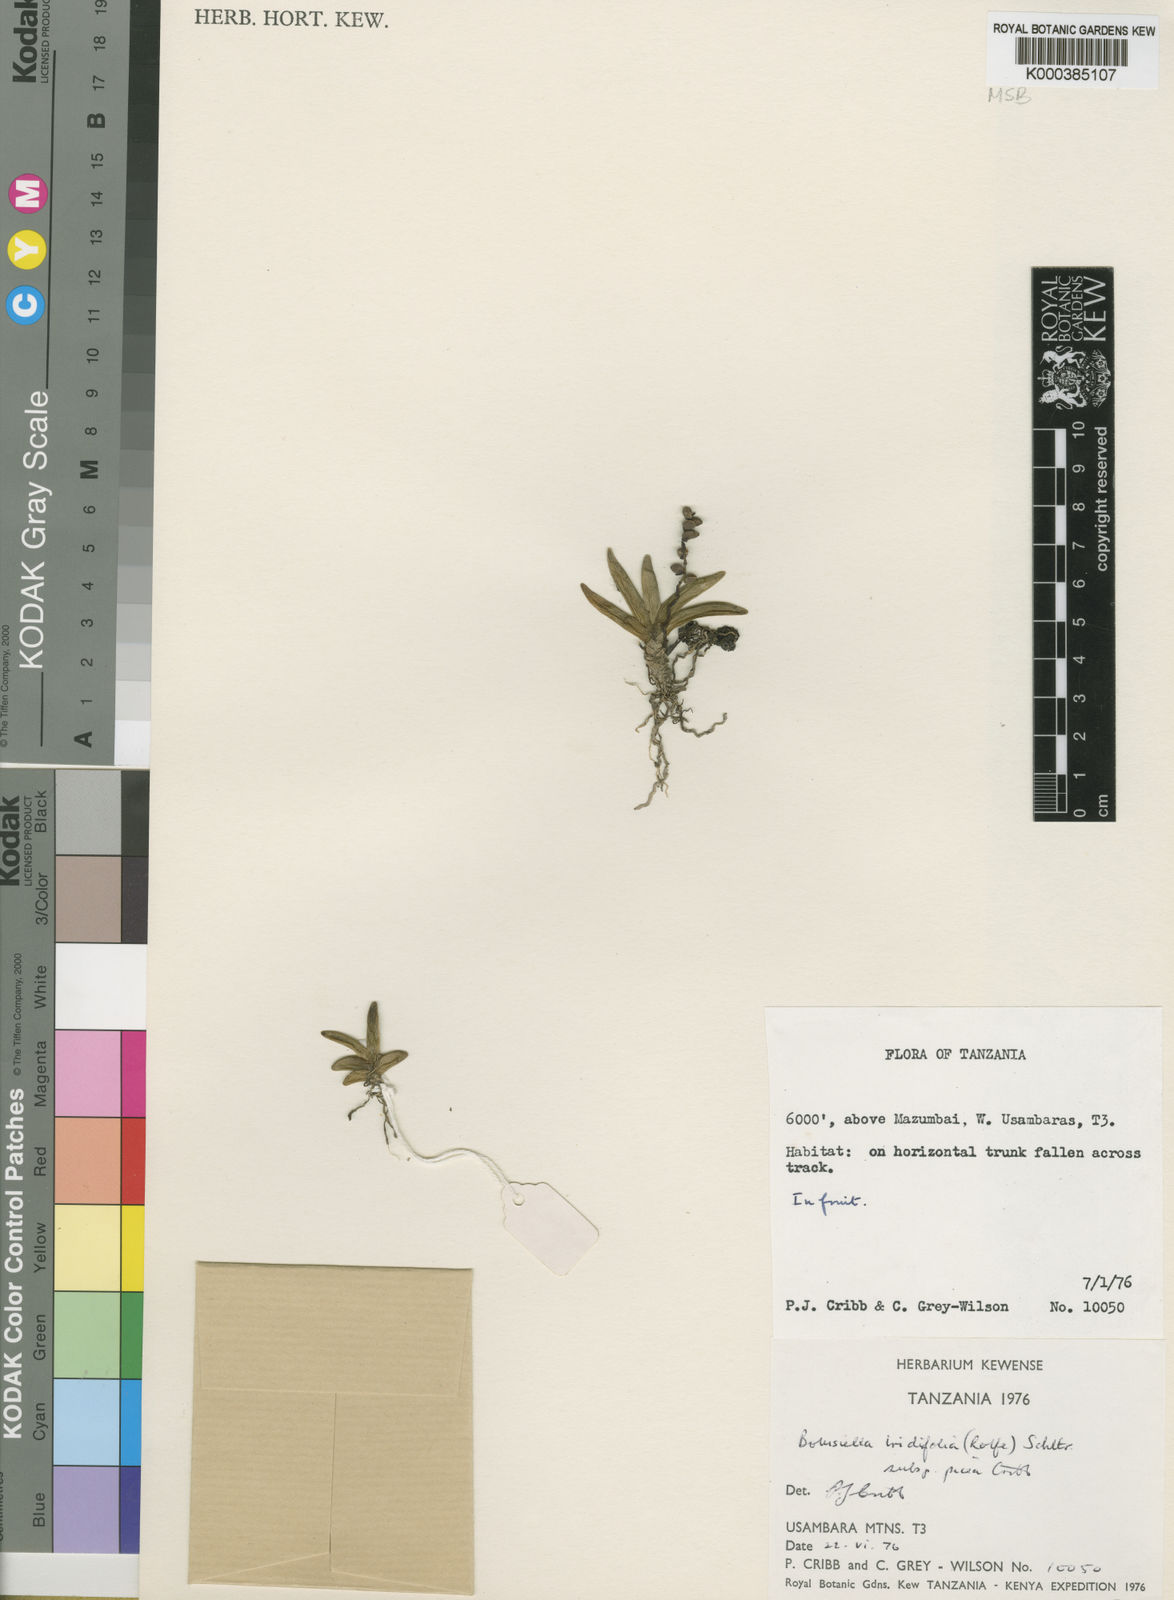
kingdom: Plantae
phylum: Tracheophyta
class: Liliopsida
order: Asparagales
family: Orchidaceae
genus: Bolusiella
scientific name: Bolusiella iridifolia
